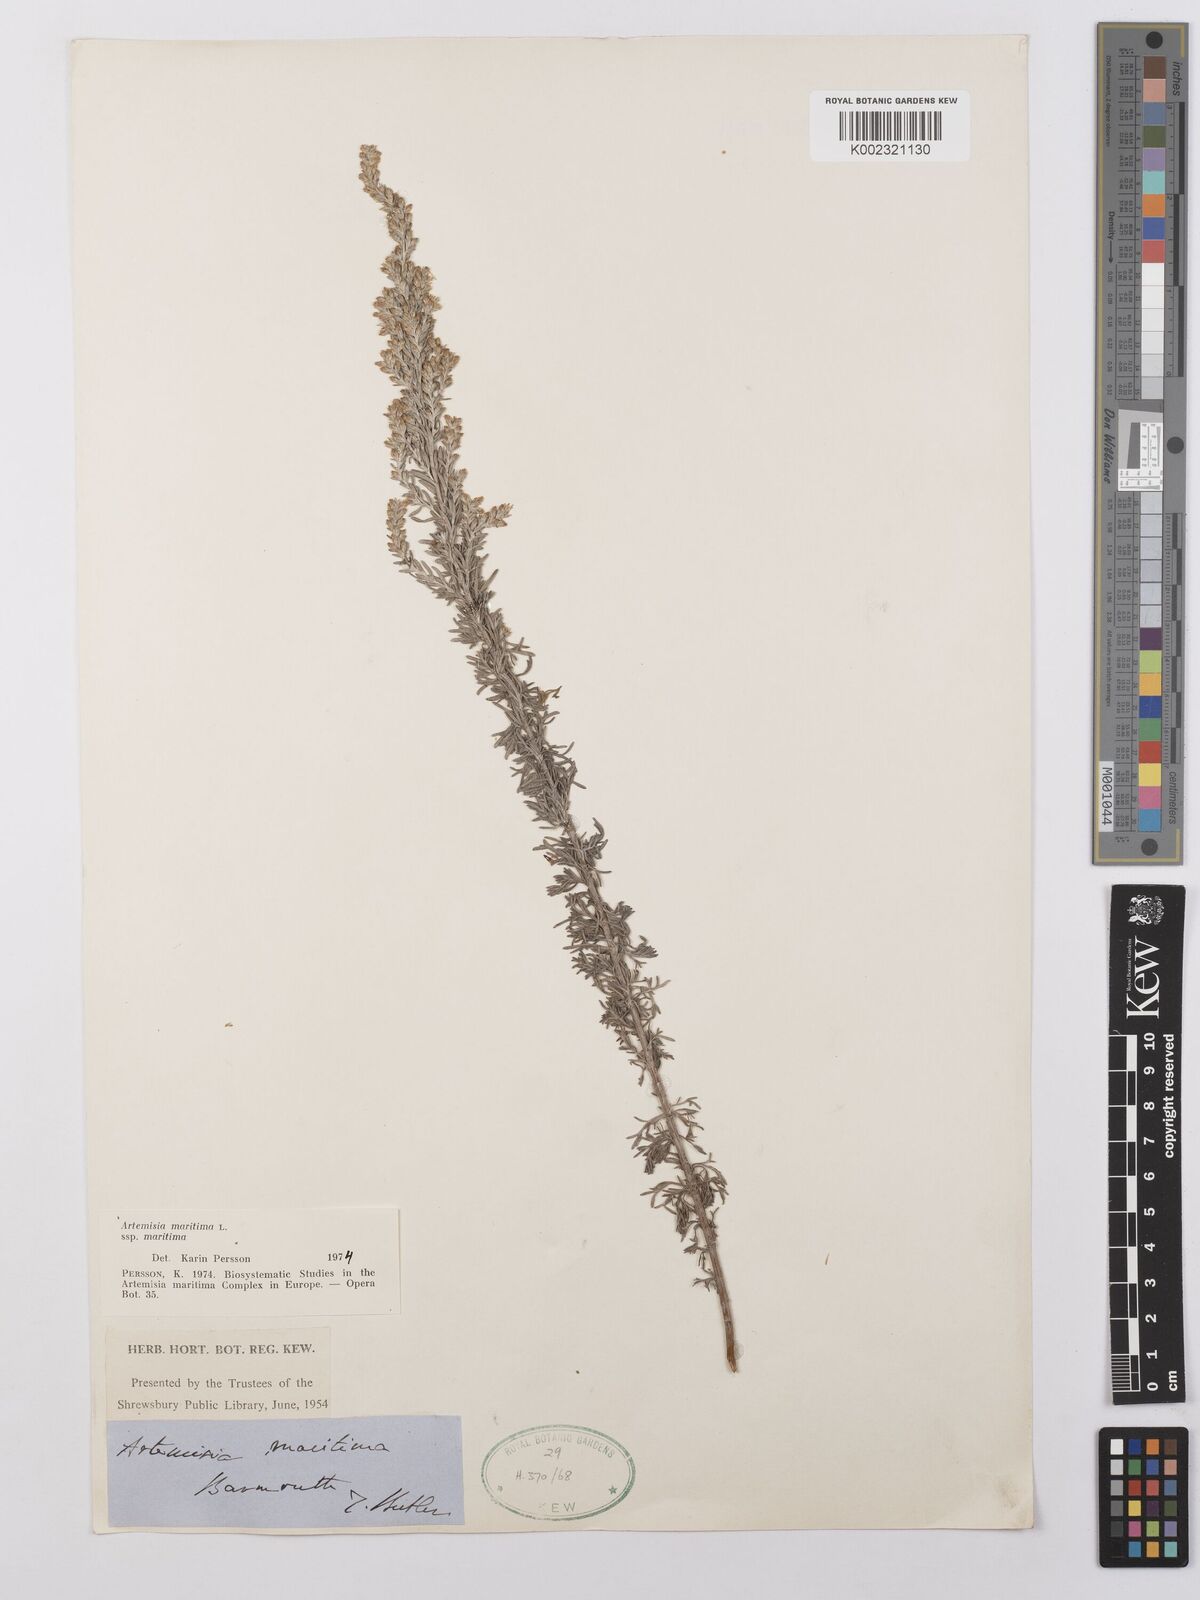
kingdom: Plantae
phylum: Tracheophyta
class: Magnoliopsida
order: Asterales
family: Asteraceae
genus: Artemisia
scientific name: Artemisia maritima
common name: Wormseed
